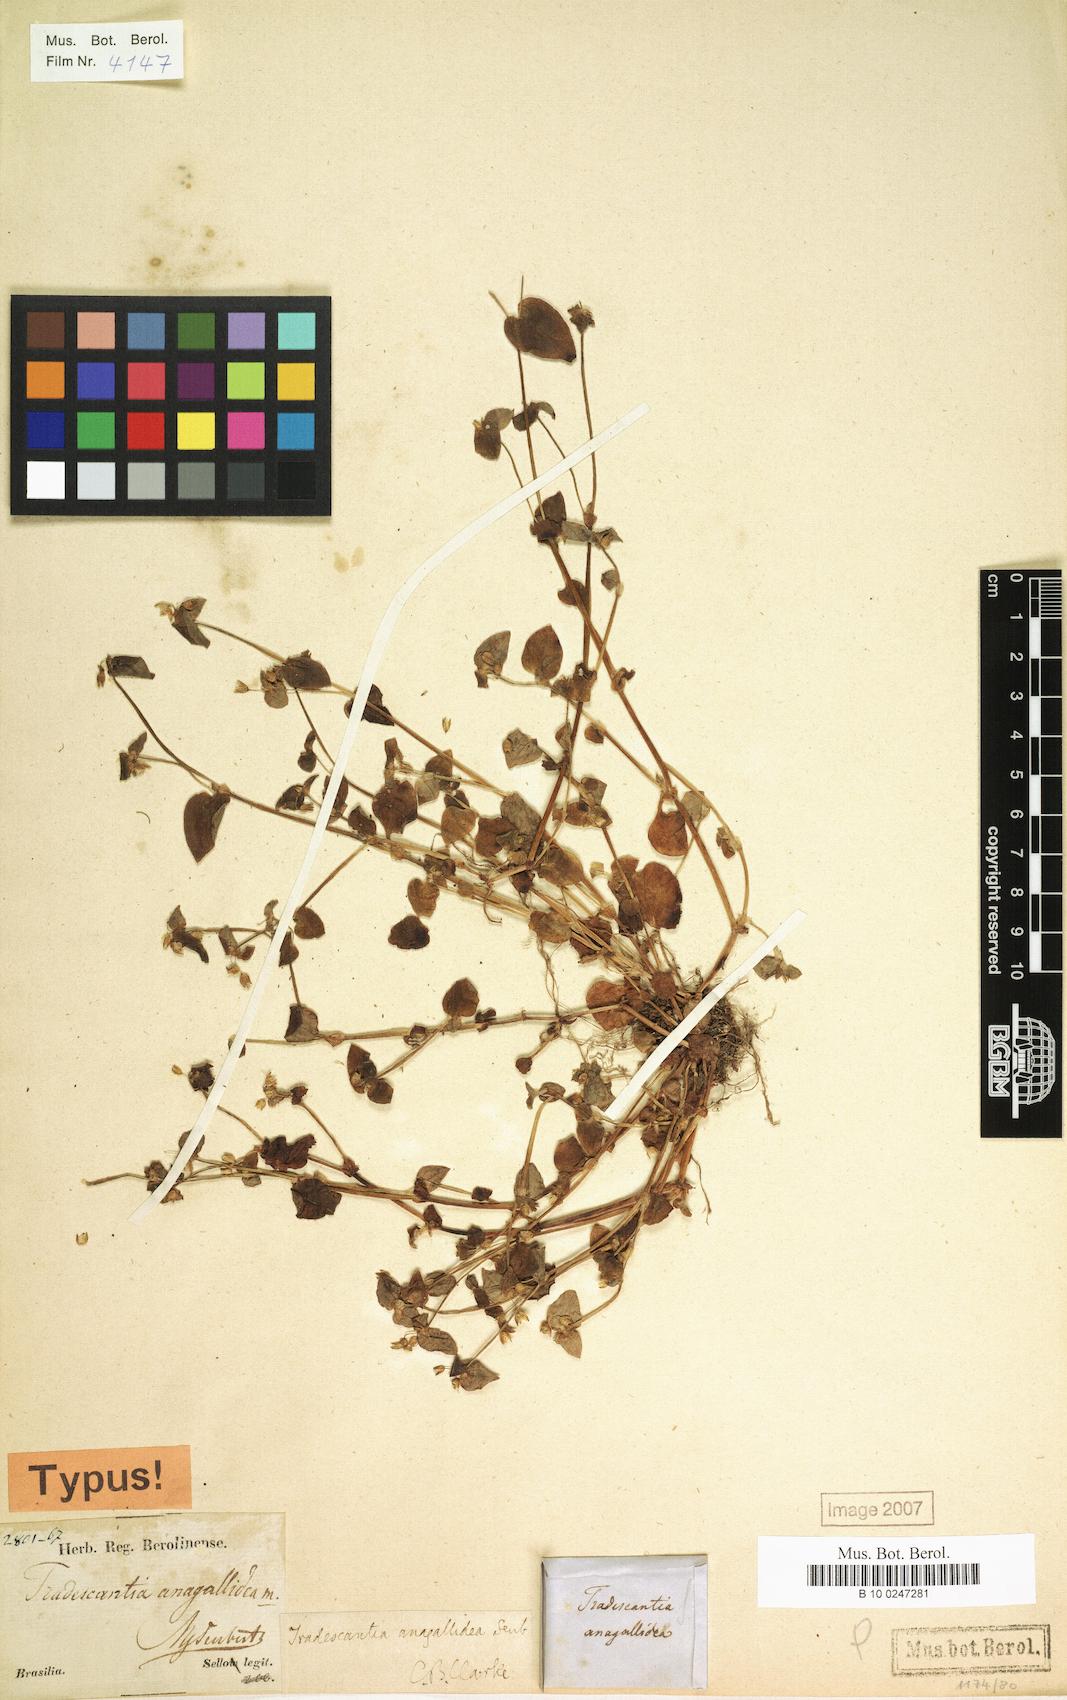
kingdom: Plantae
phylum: Tracheophyta
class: Liliopsida
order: Commelinales
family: Commelinaceae
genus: Tradescantia
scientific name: Tradescantia tenella
